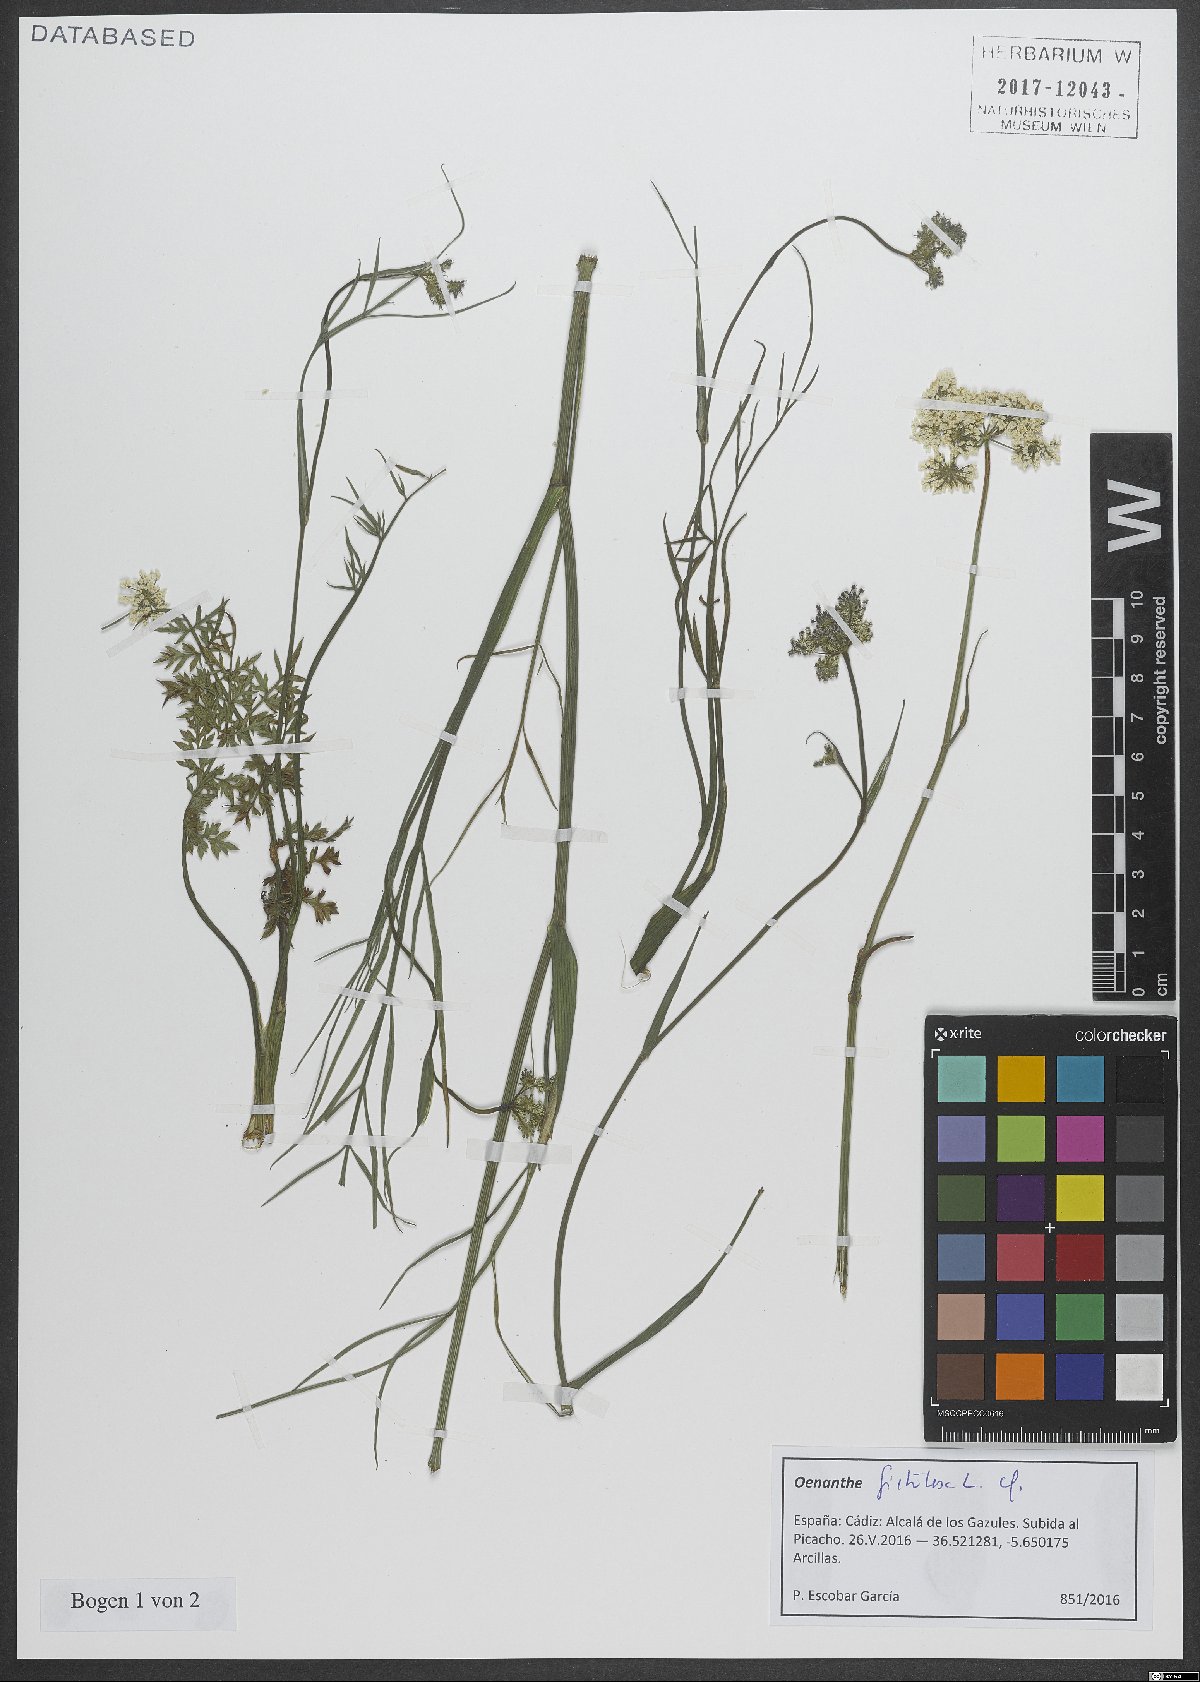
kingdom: Plantae
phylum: Tracheophyta
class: Magnoliopsida
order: Apiales
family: Apiaceae
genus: Oenanthe
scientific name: Oenanthe fistulosa
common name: Tubular water-dropwort
